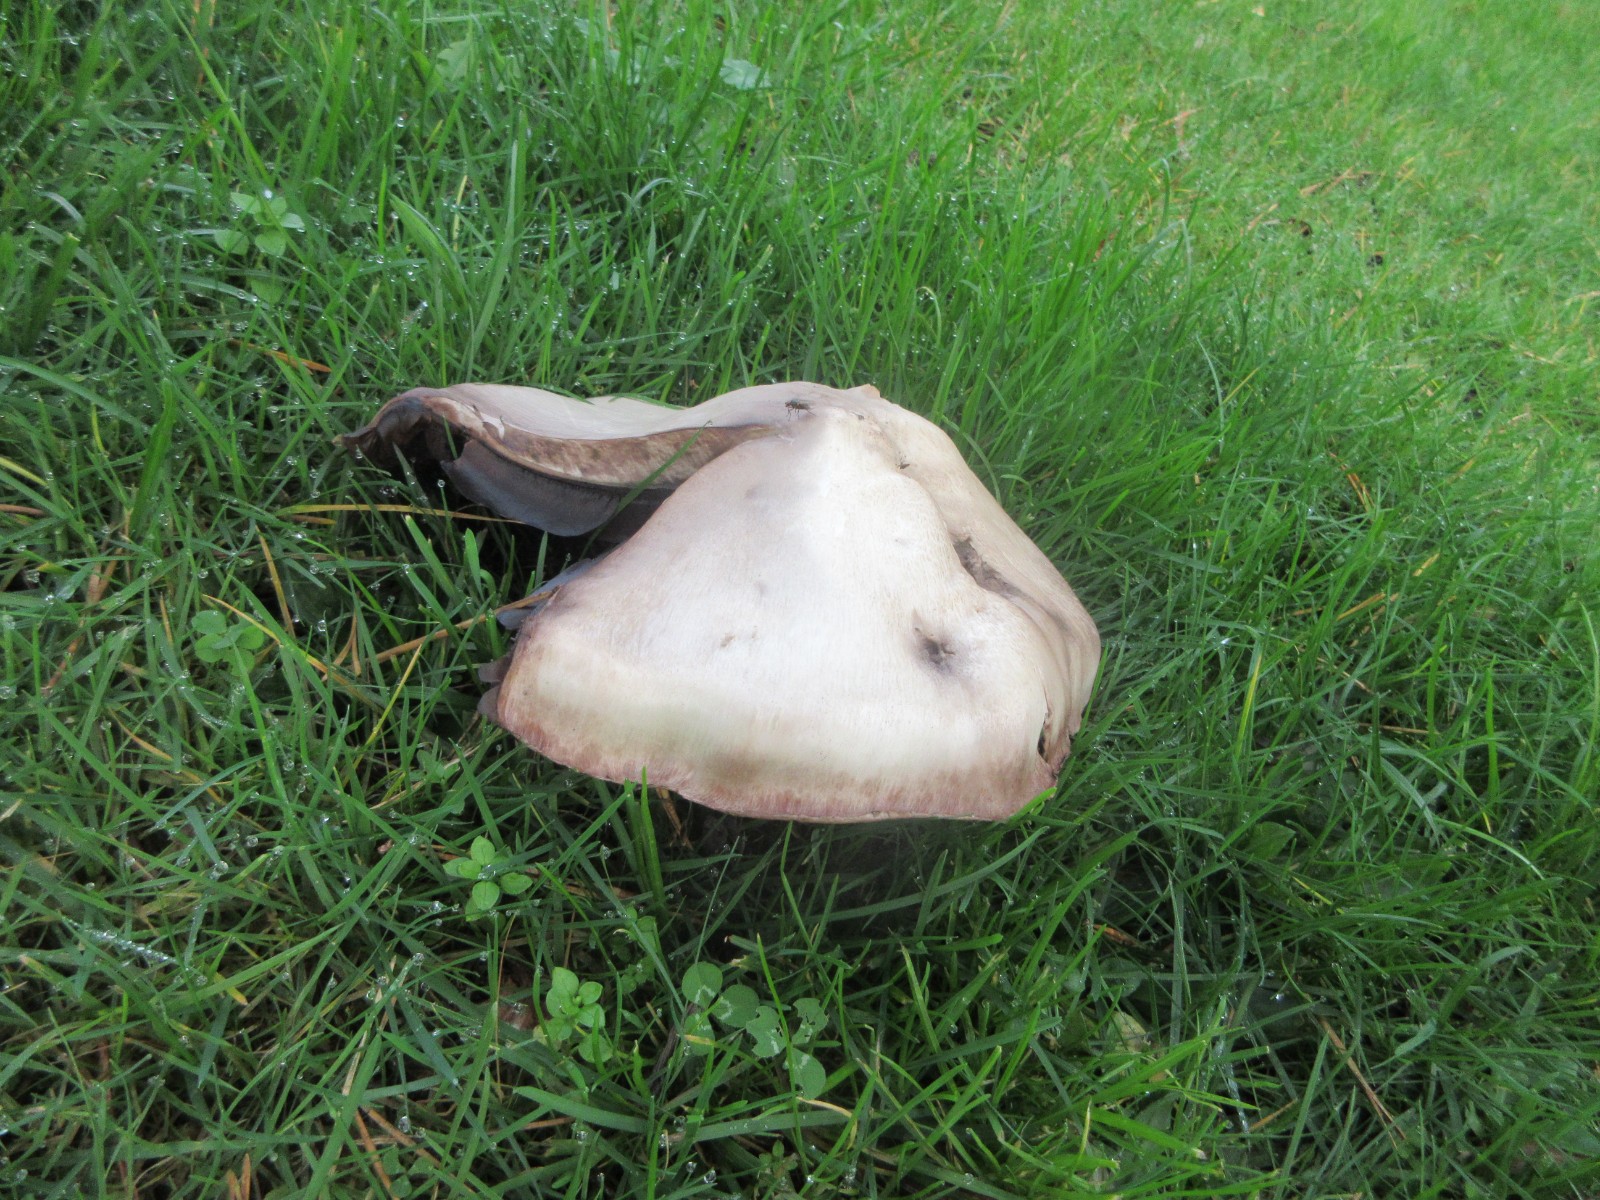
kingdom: Fungi
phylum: Basidiomycota
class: Agaricomycetes
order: Agaricales
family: Agaricaceae
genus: Agaricus
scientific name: Agaricus crocodilinus
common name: landsby-champignon
